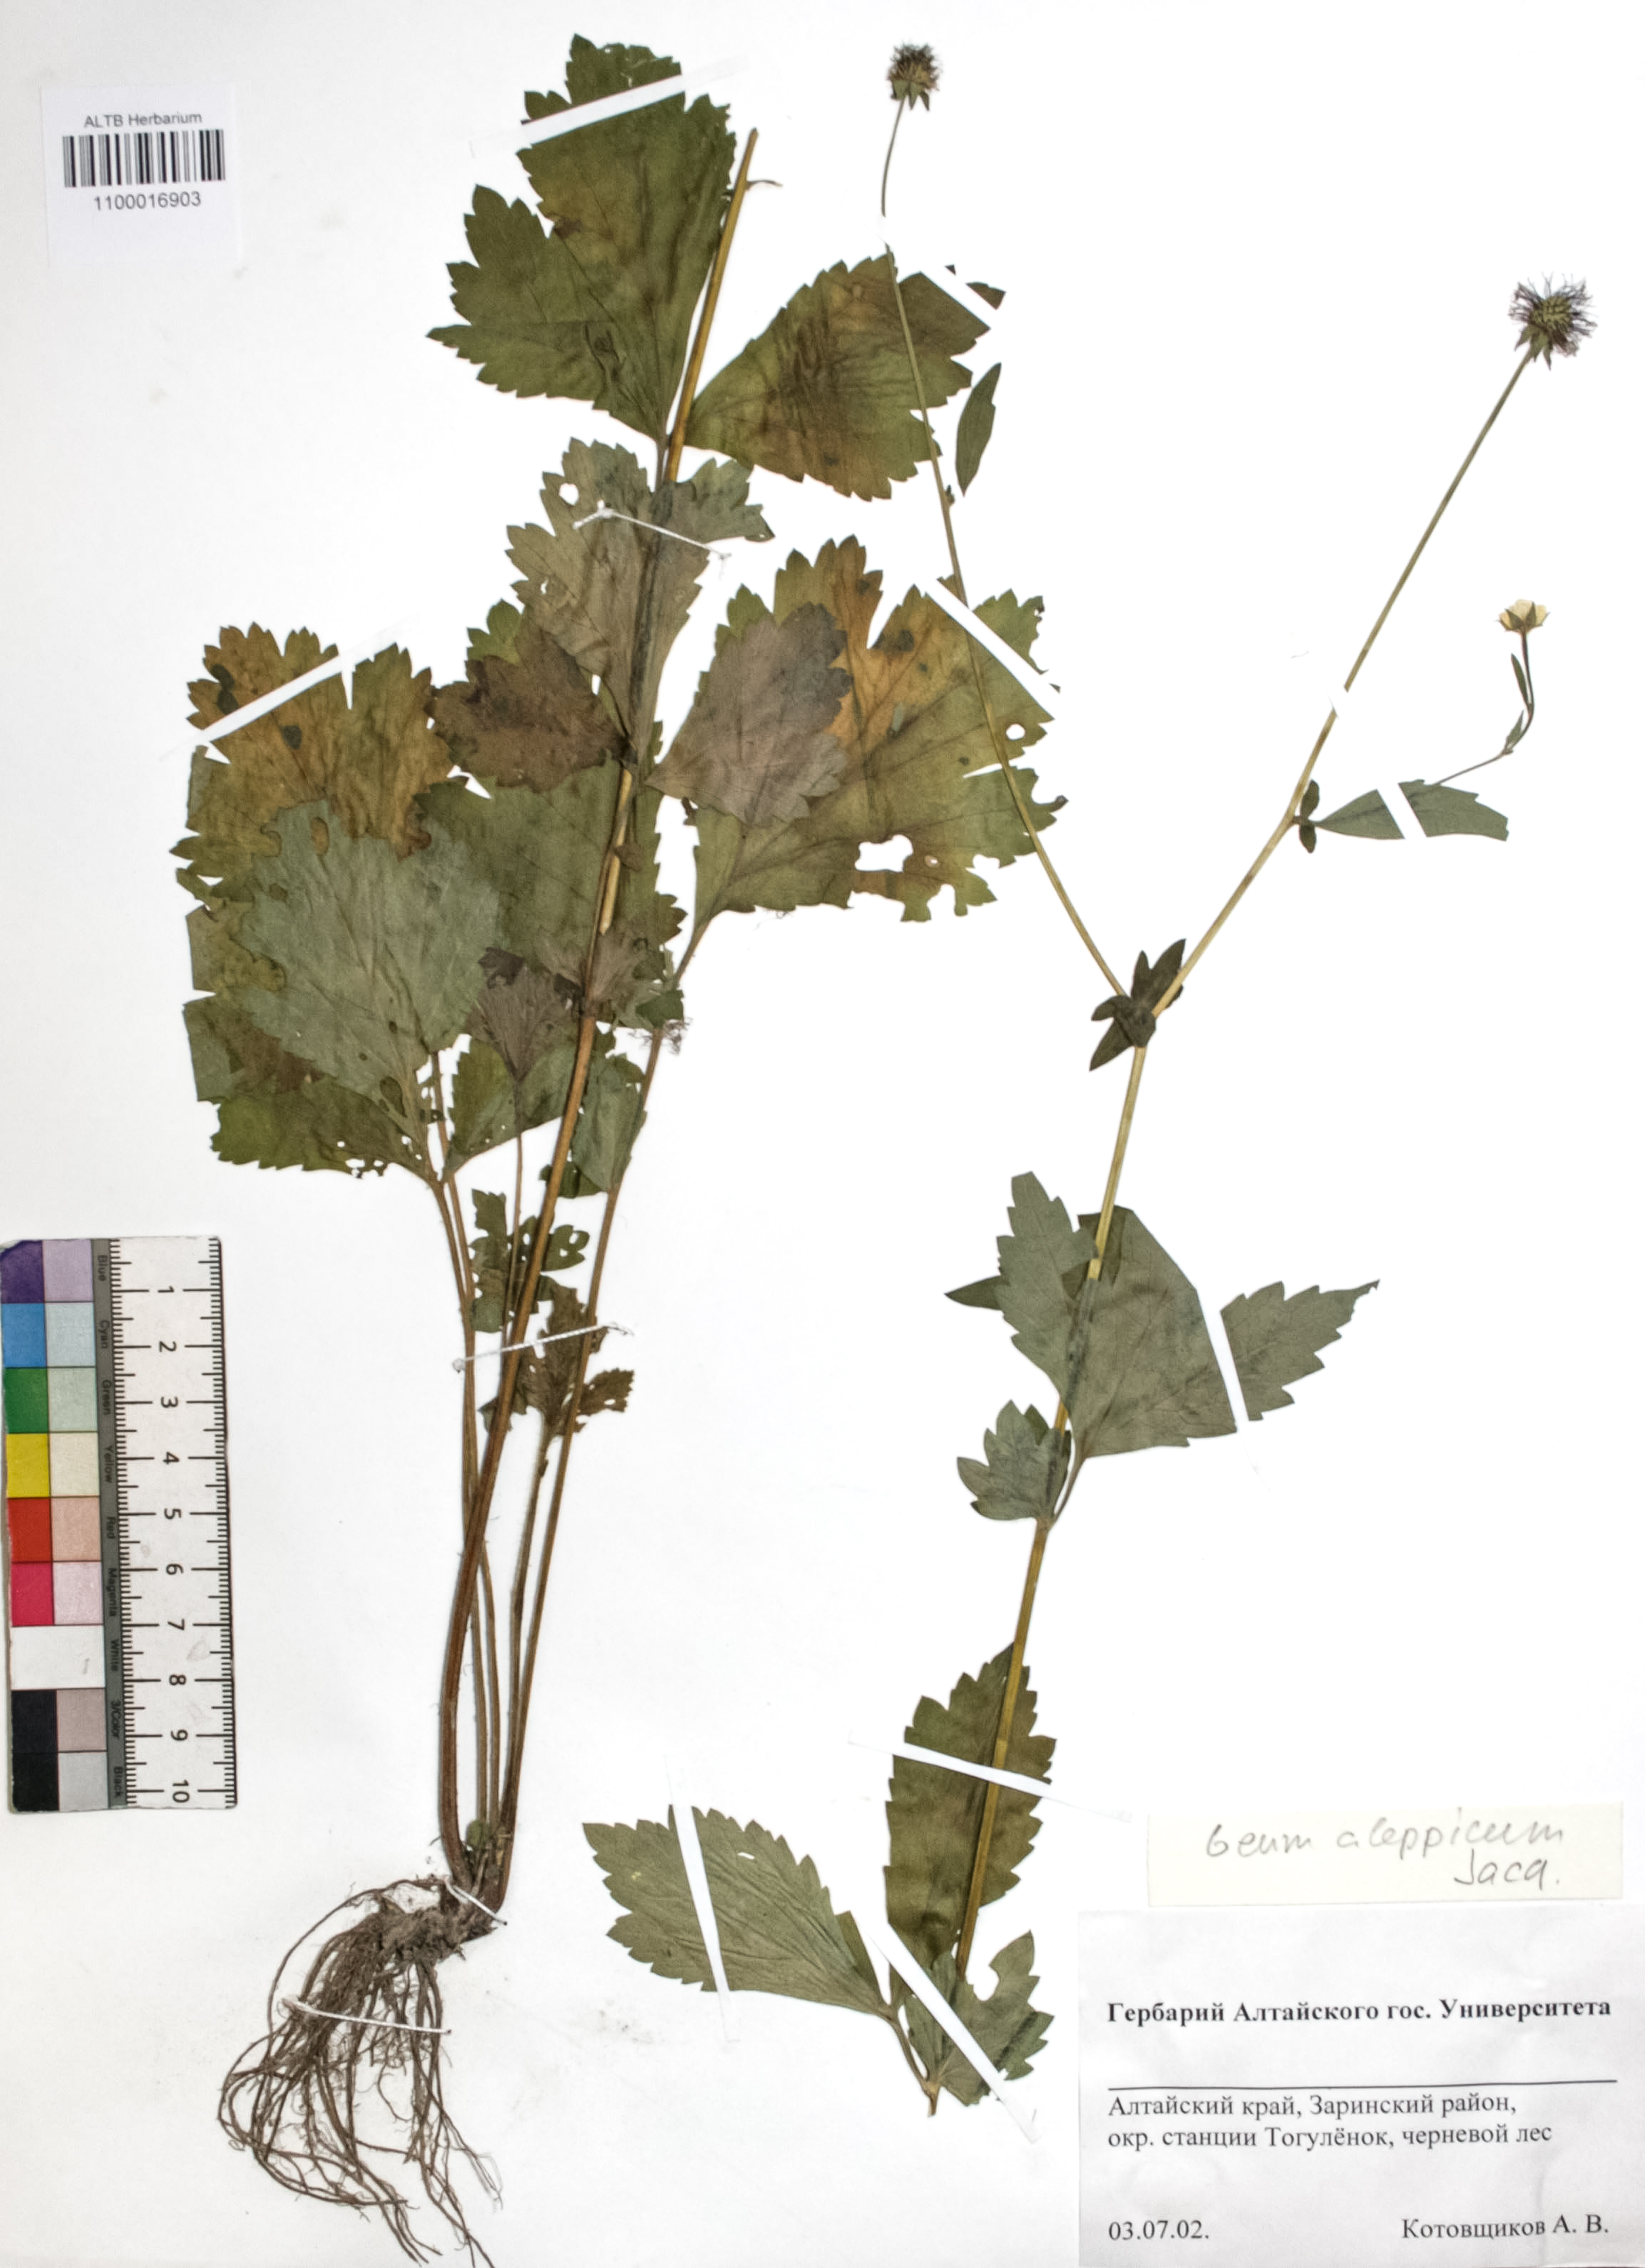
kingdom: Plantae
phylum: Tracheophyta
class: Magnoliopsida
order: Rosales
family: Rosaceae
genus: Geum
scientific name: Geum aleppicum
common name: Yellow avens
